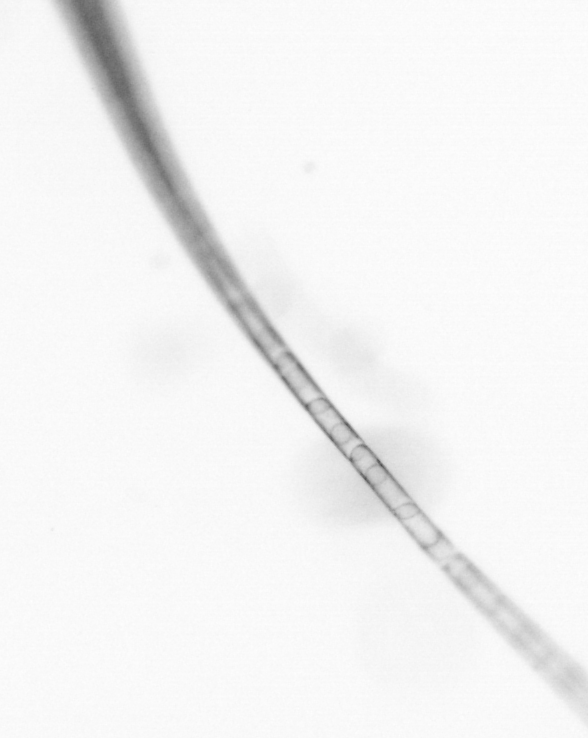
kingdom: Chromista
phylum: Ochrophyta
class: Bacillariophyceae
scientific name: Bacillariophyceae
